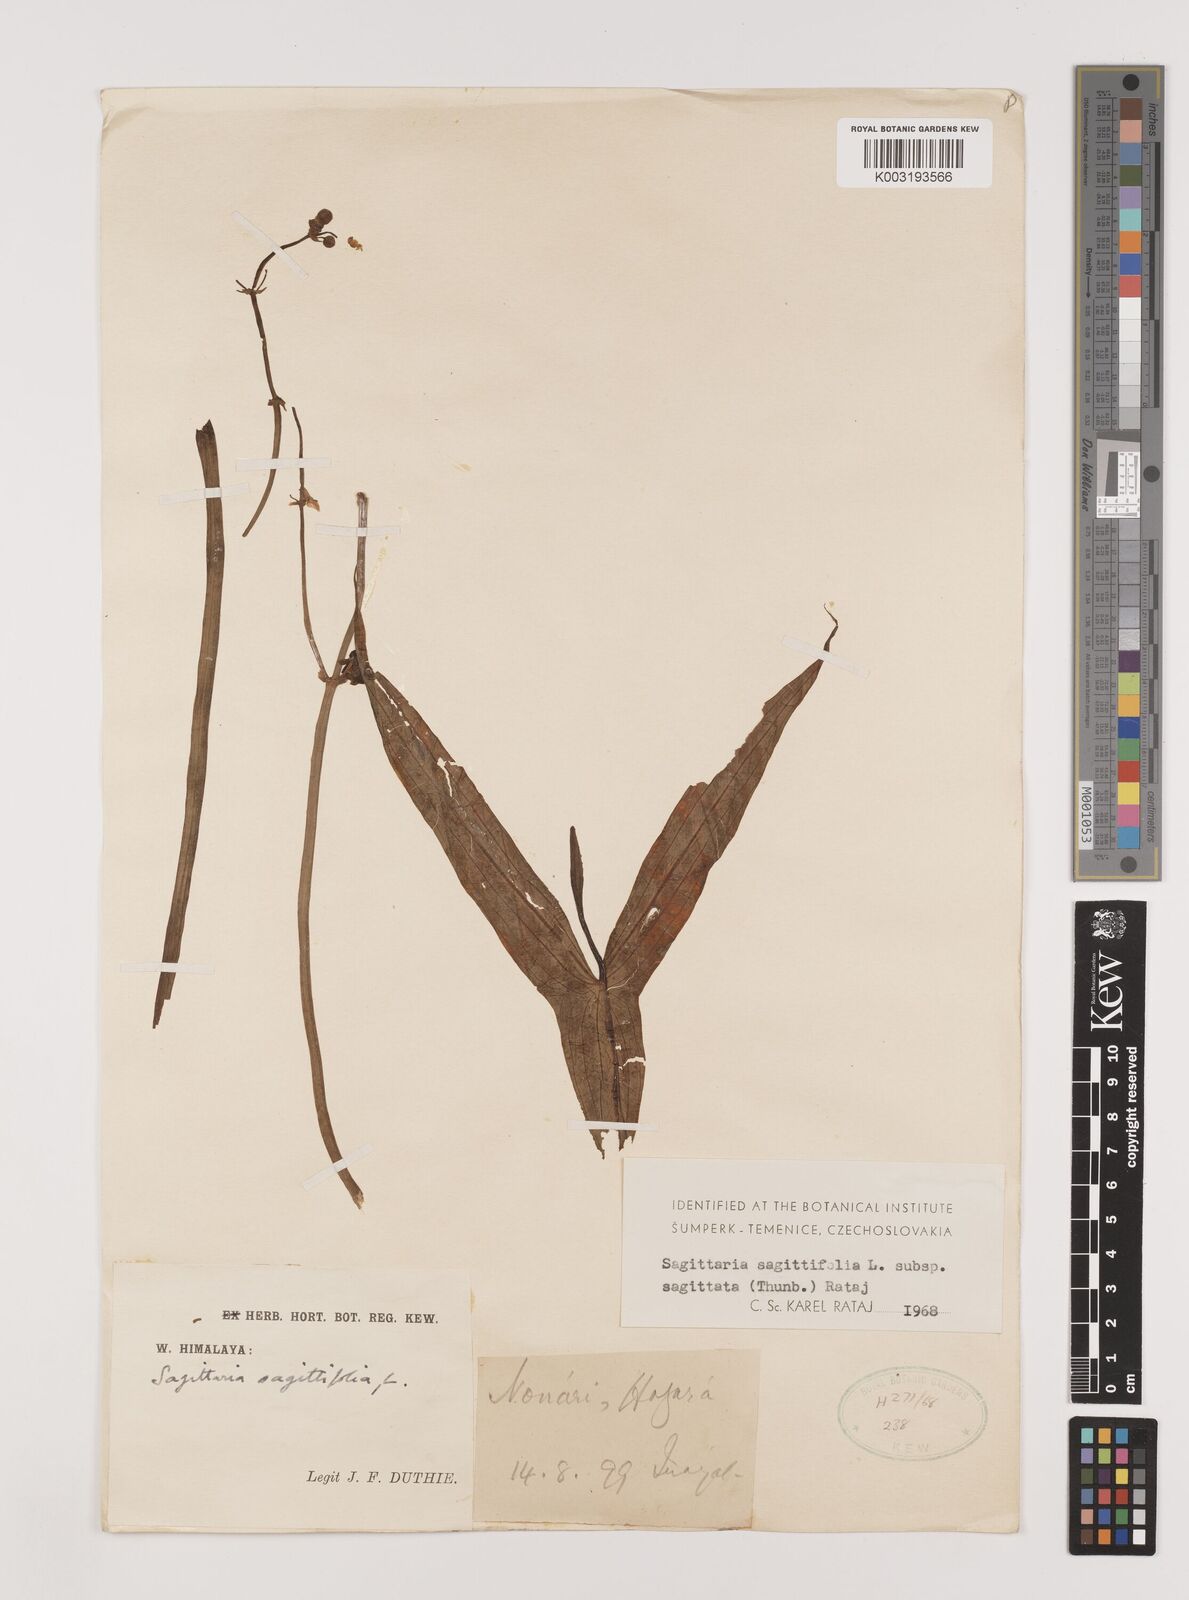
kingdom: Plantae
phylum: Tracheophyta
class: Liliopsida
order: Alismatales
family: Alismataceae
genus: Sagittaria
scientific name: Sagittaria sagittifolia
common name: Arrowhead
